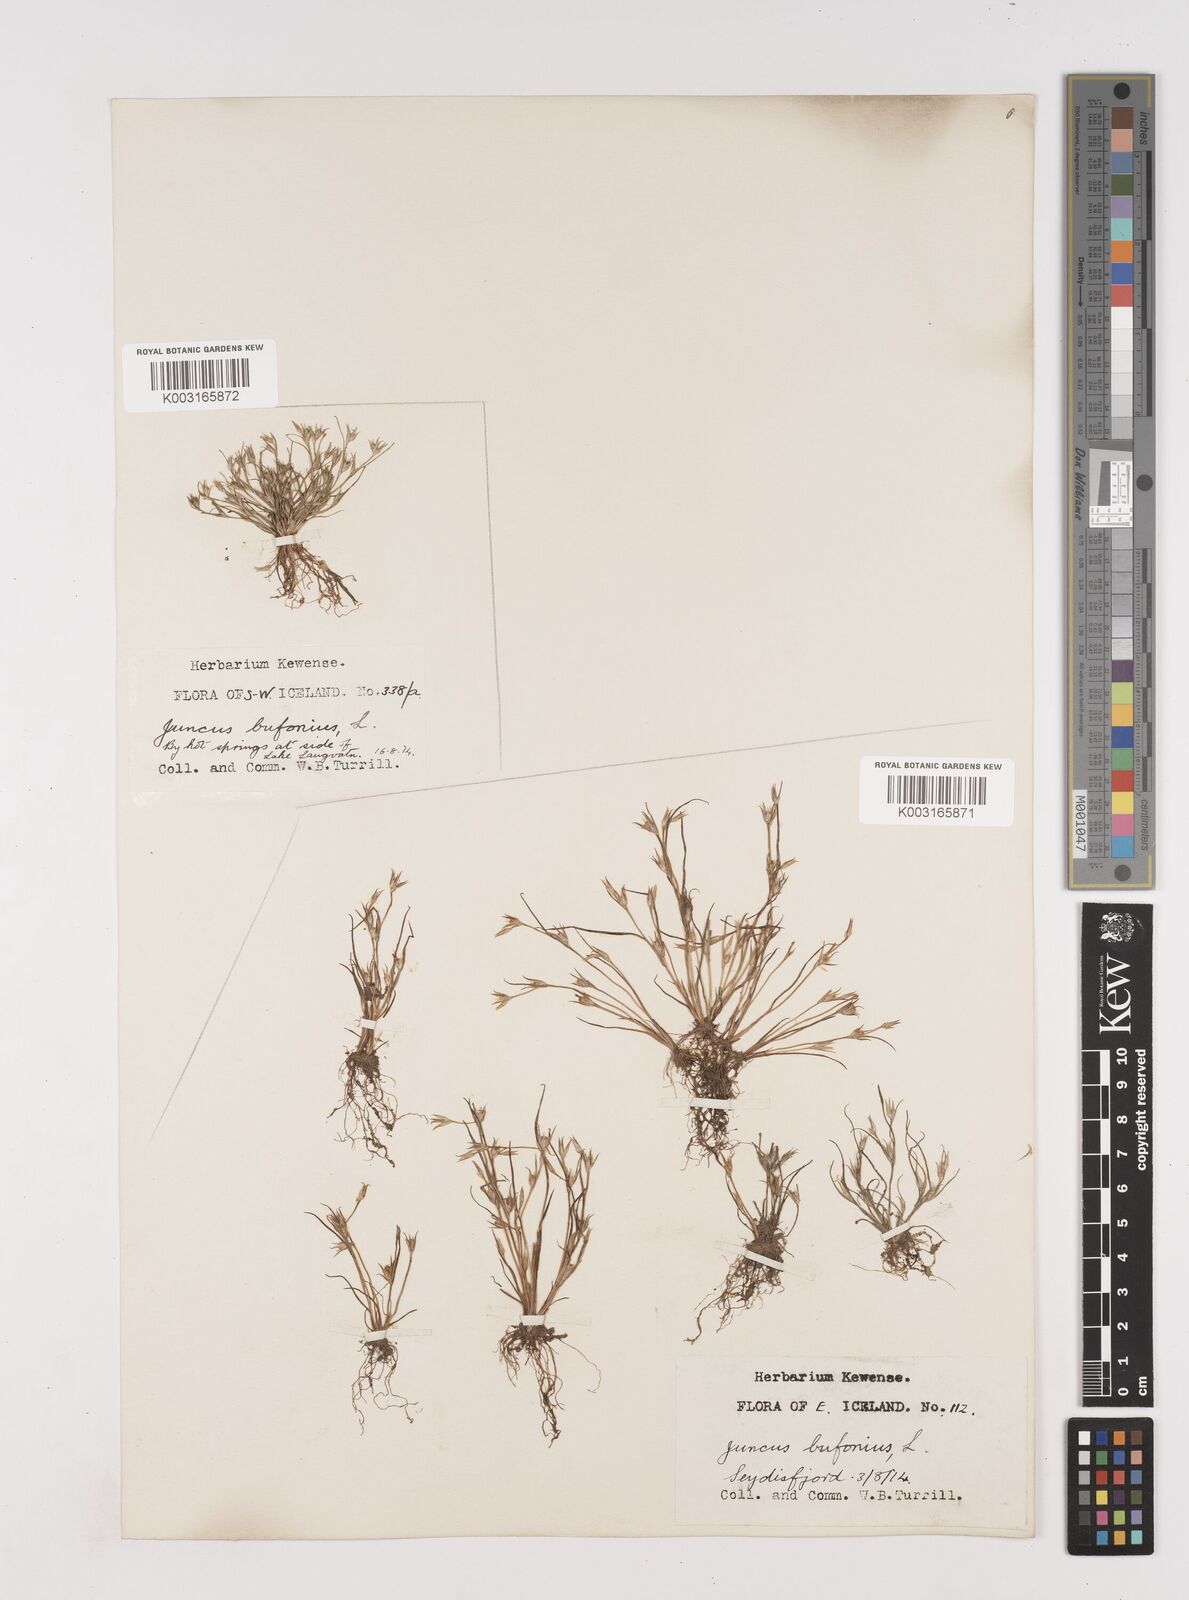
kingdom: Plantae
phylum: Tracheophyta
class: Liliopsida
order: Poales
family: Juncaceae
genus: Juncus
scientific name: Juncus bufonius
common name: Toad rush
